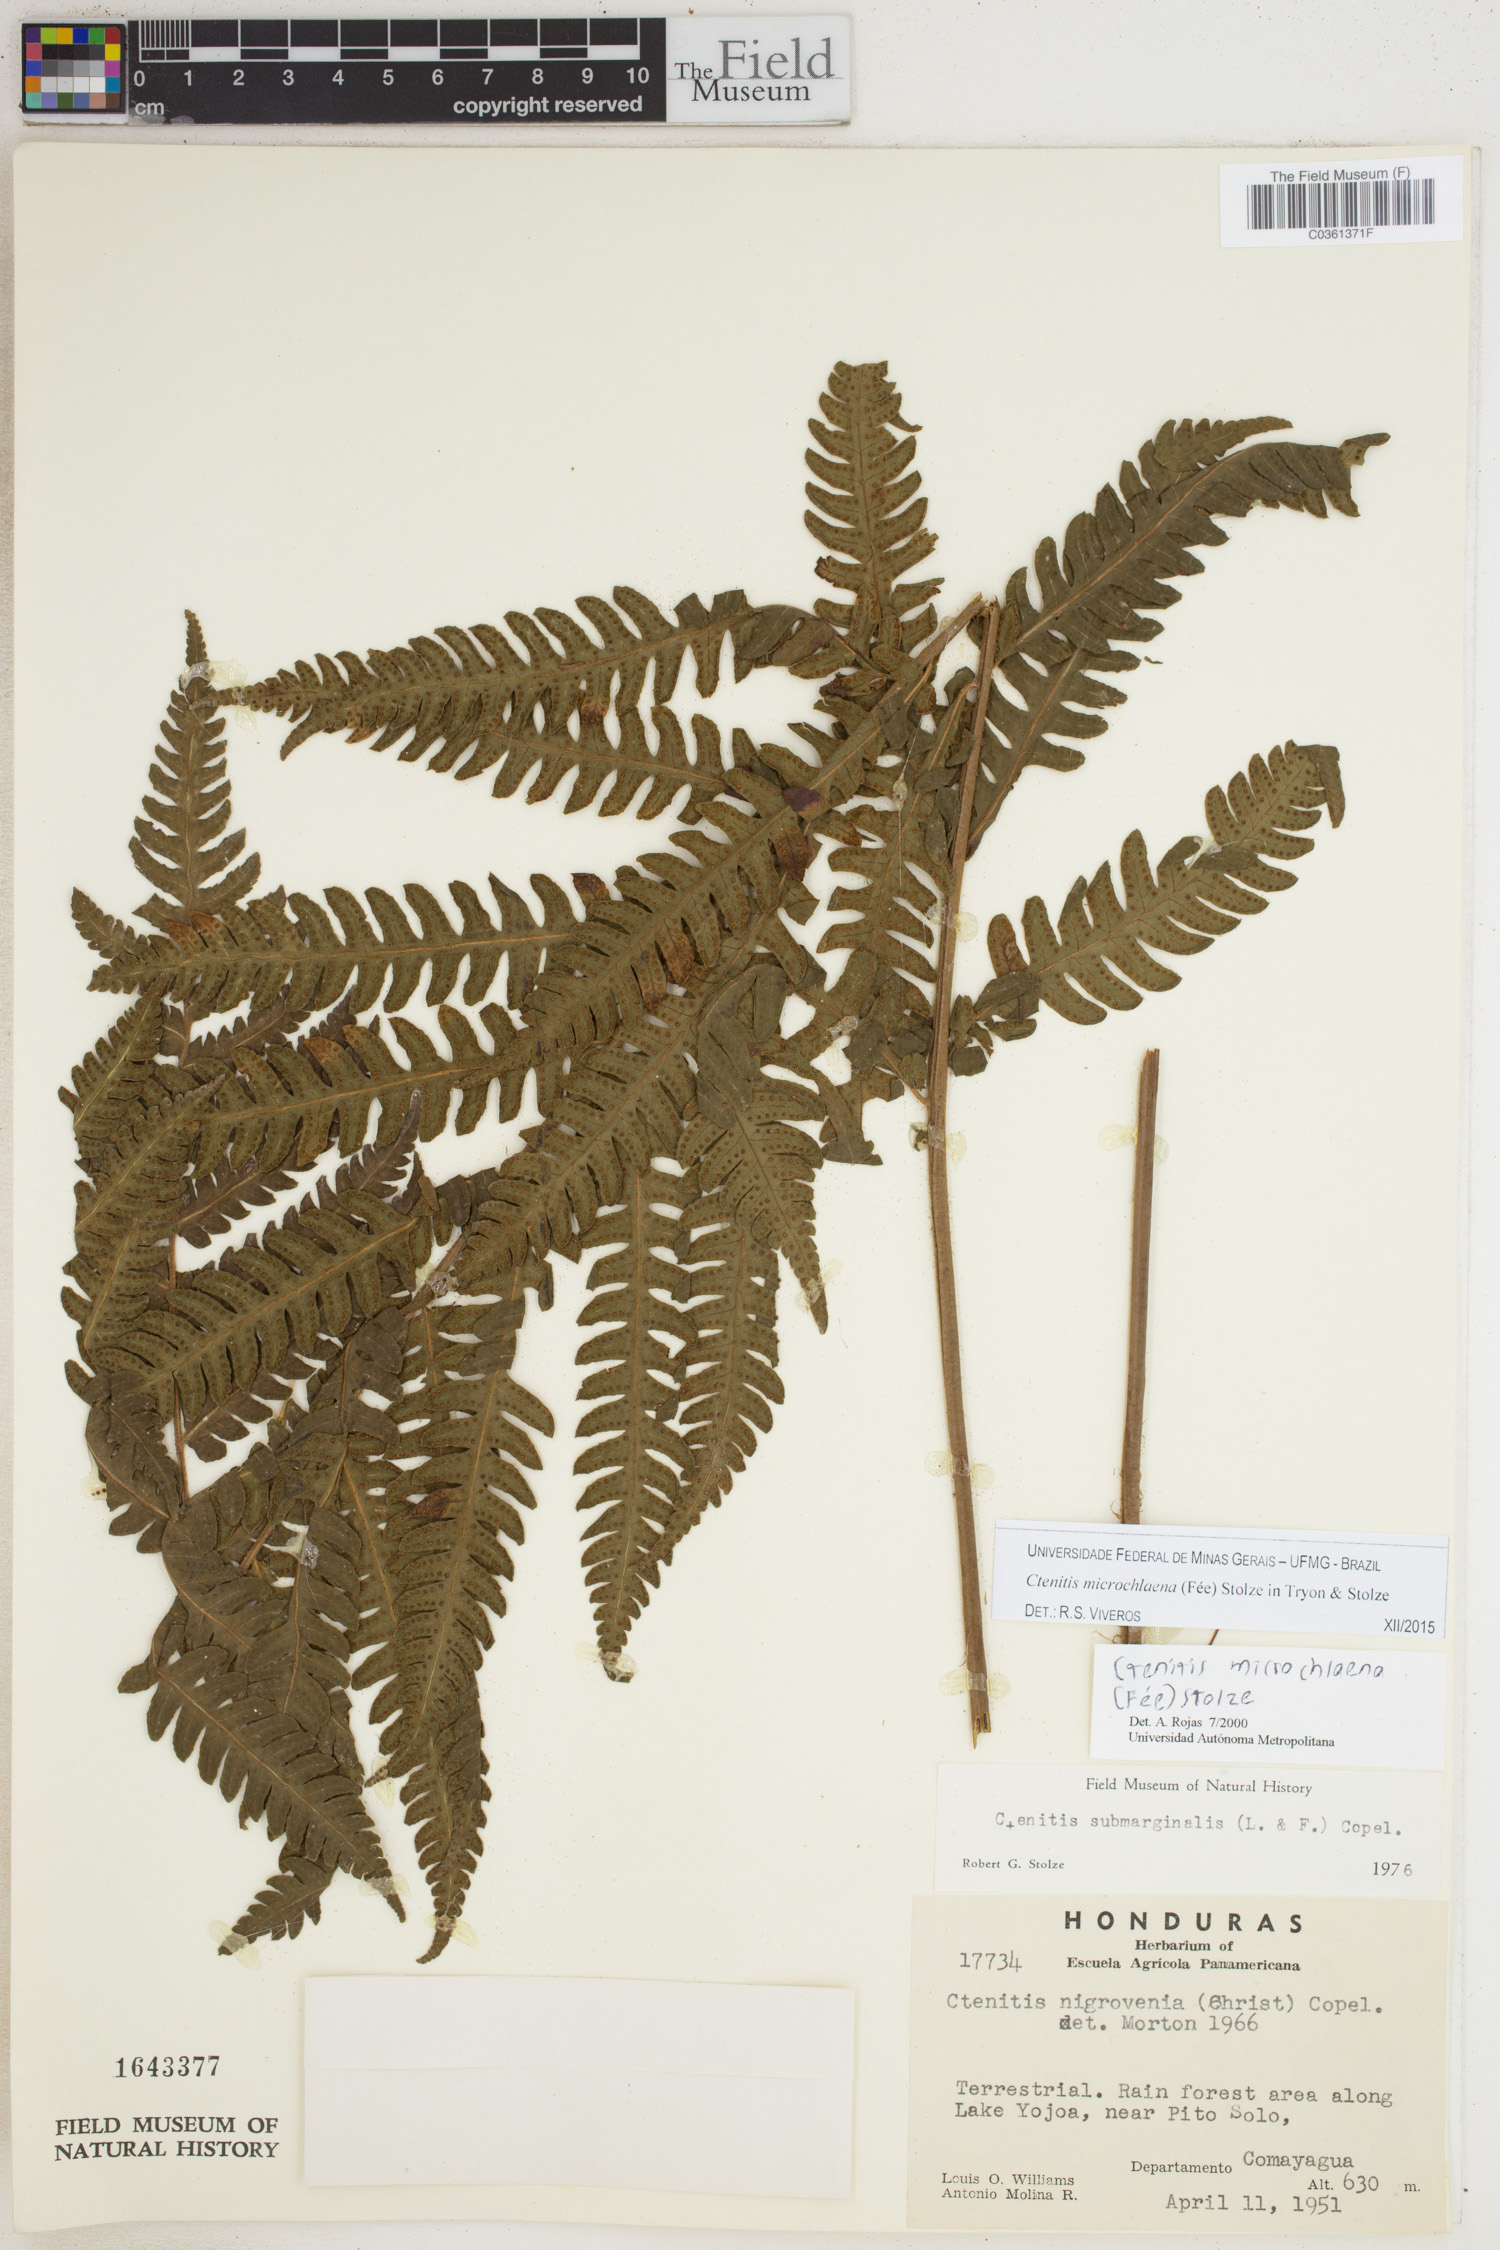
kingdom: Plantae
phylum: Tracheophyta
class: Polypodiopsida
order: Polypodiales
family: Dryopteridaceae
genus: Ctenitis
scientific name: Ctenitis microchlaena
